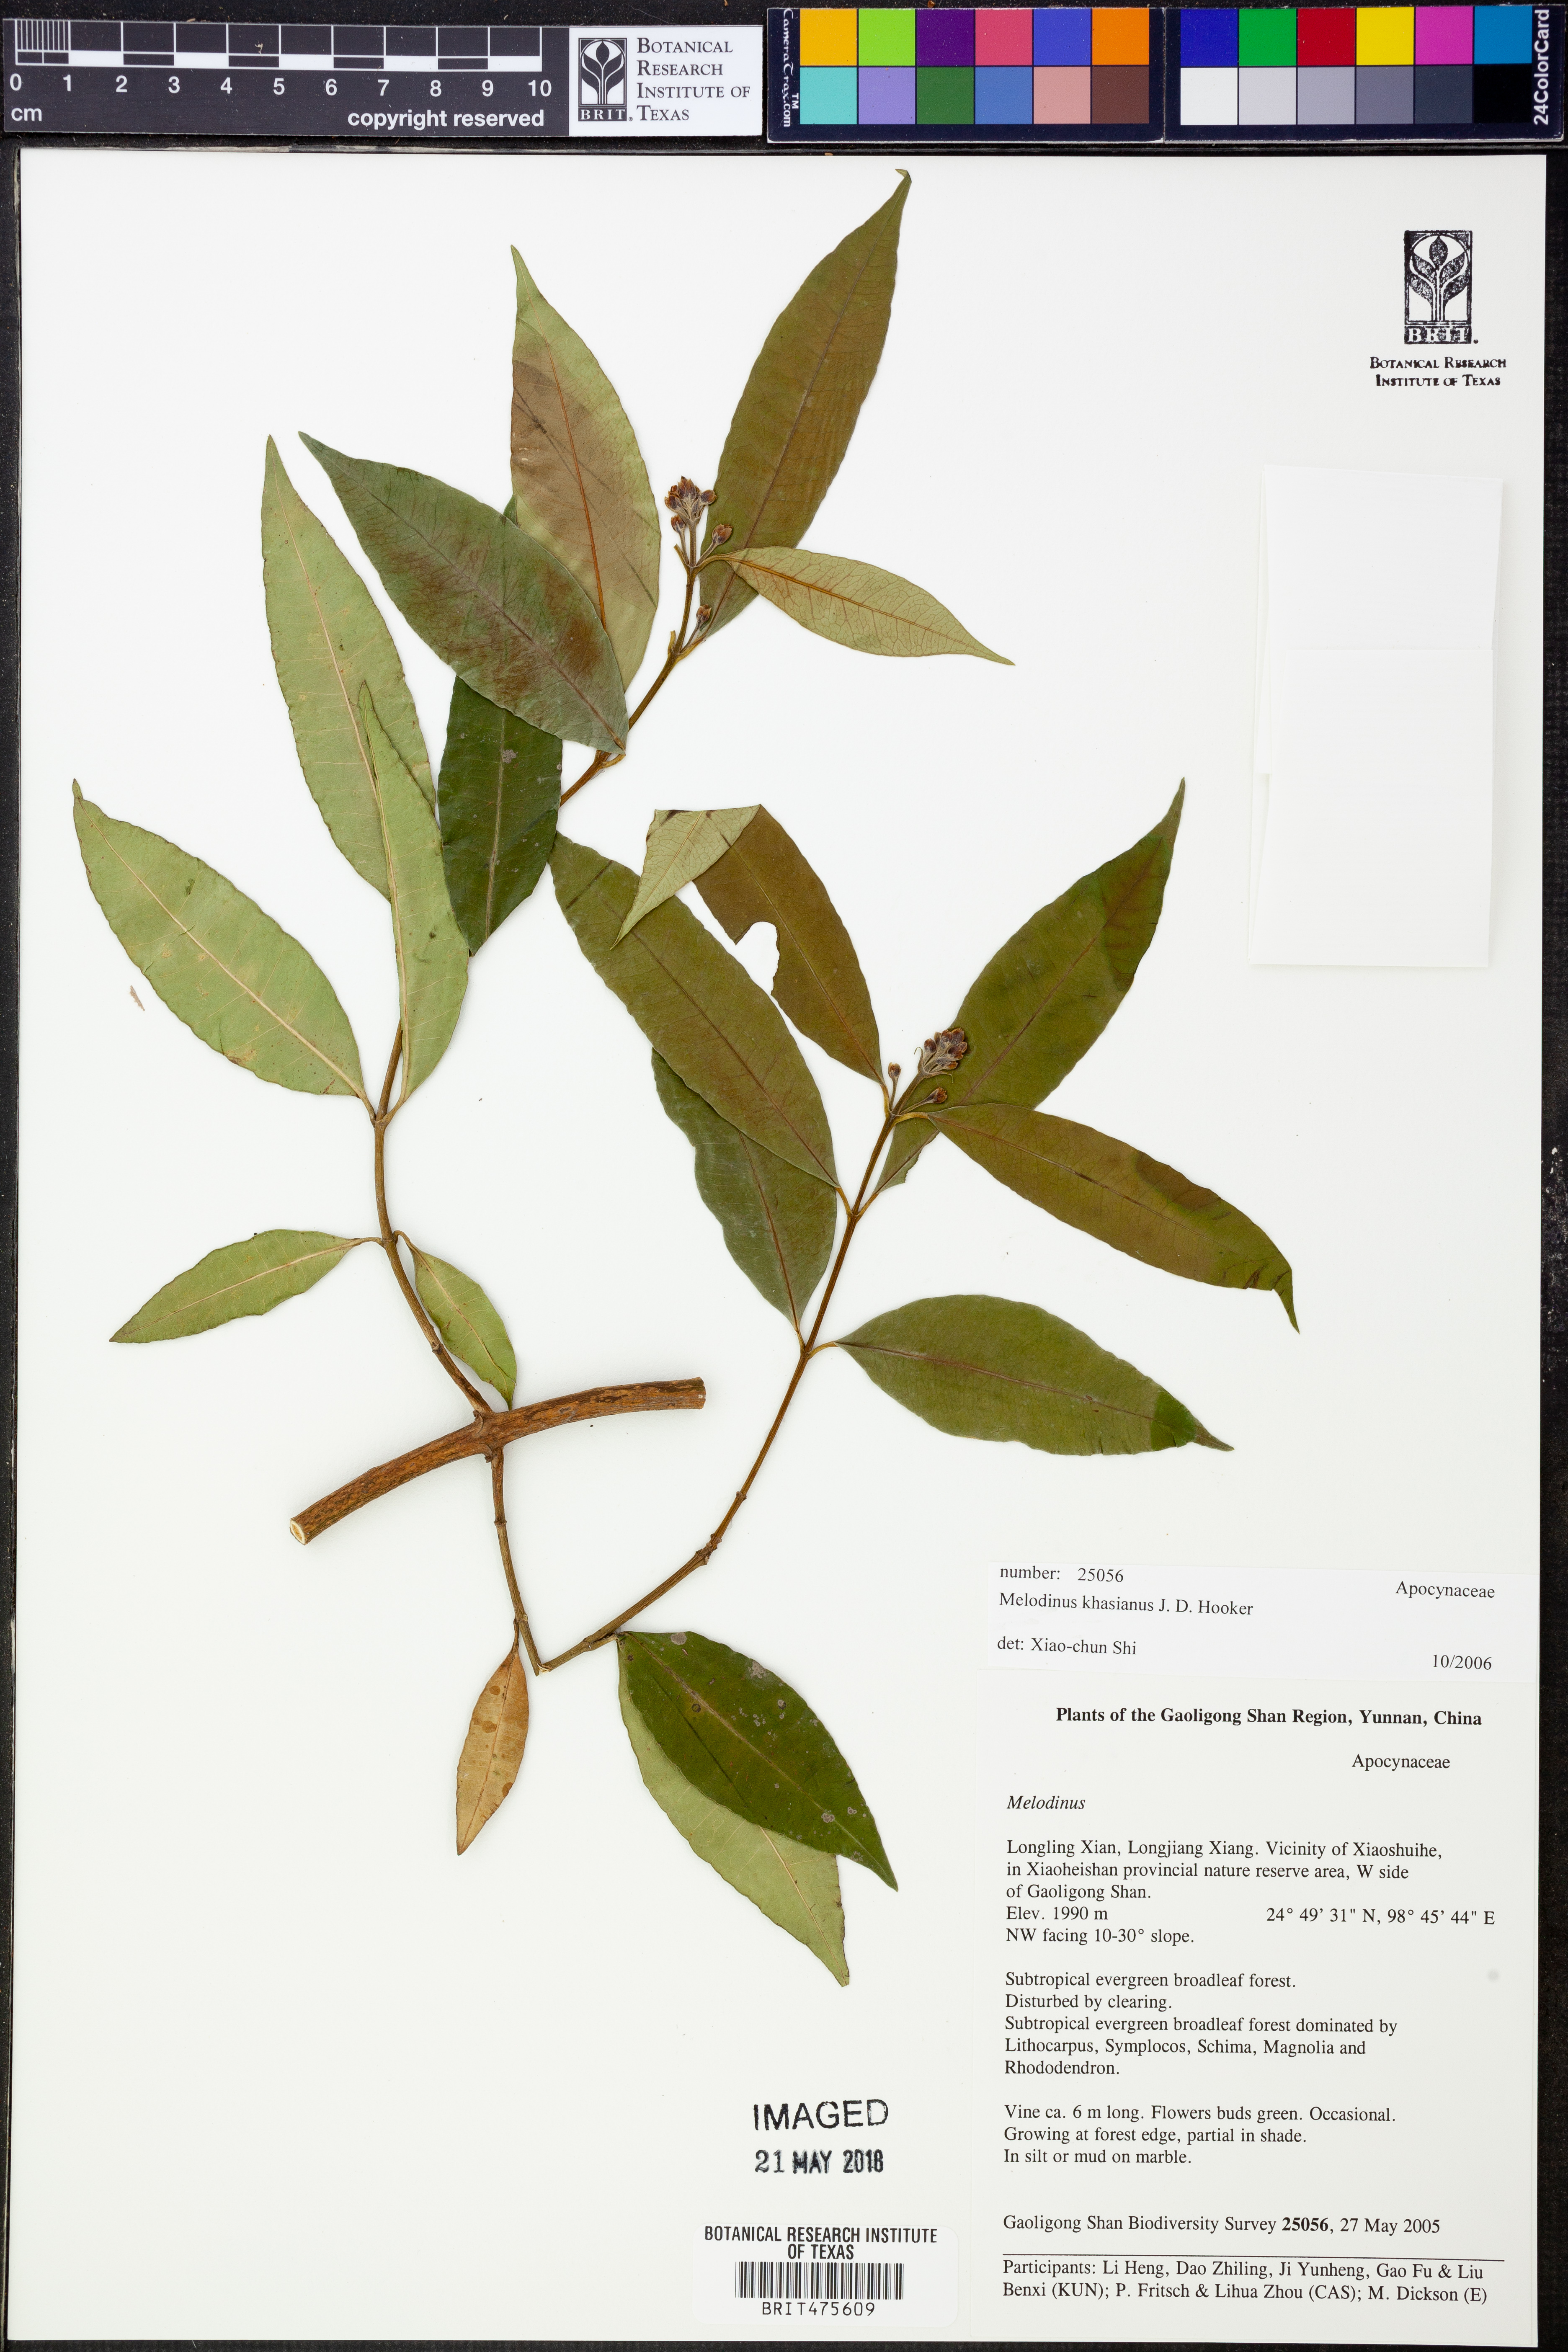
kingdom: Plantae
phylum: Tracheophyta
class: Magnoliopsida
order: Gentianales
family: Apocynaceae
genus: Melodinus
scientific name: Melodinus khasianus
